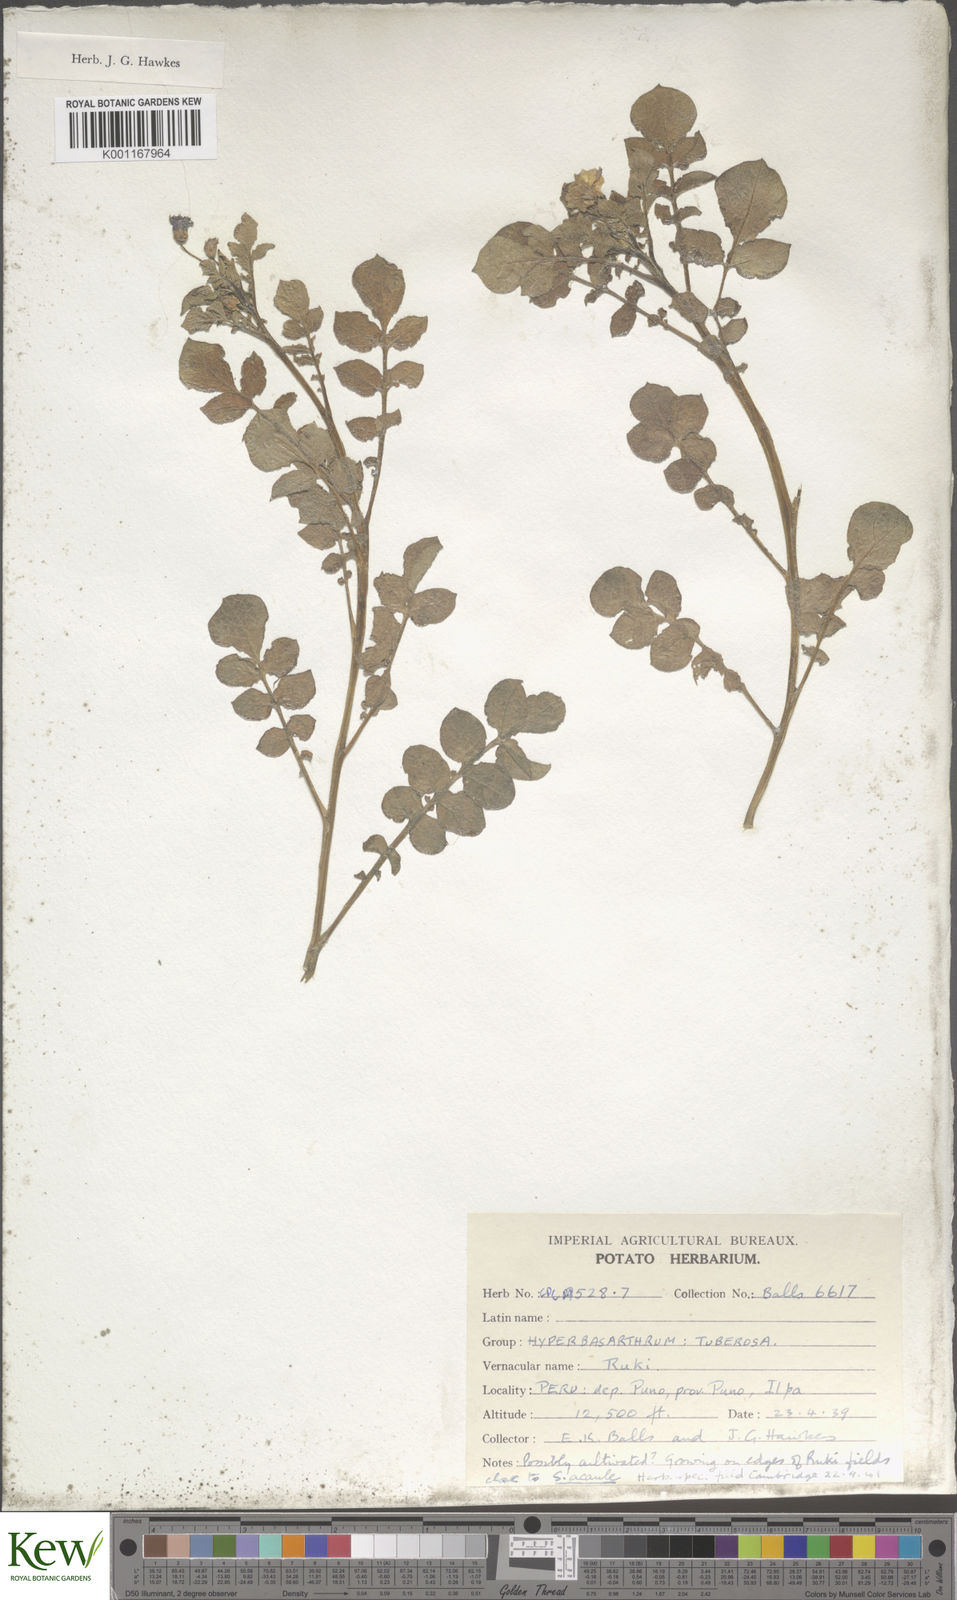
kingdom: Plantae
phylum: Tracheophyta
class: Magnoliopsida
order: Solanales
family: Solanaceae
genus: Solanum
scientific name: Solanum acaule
